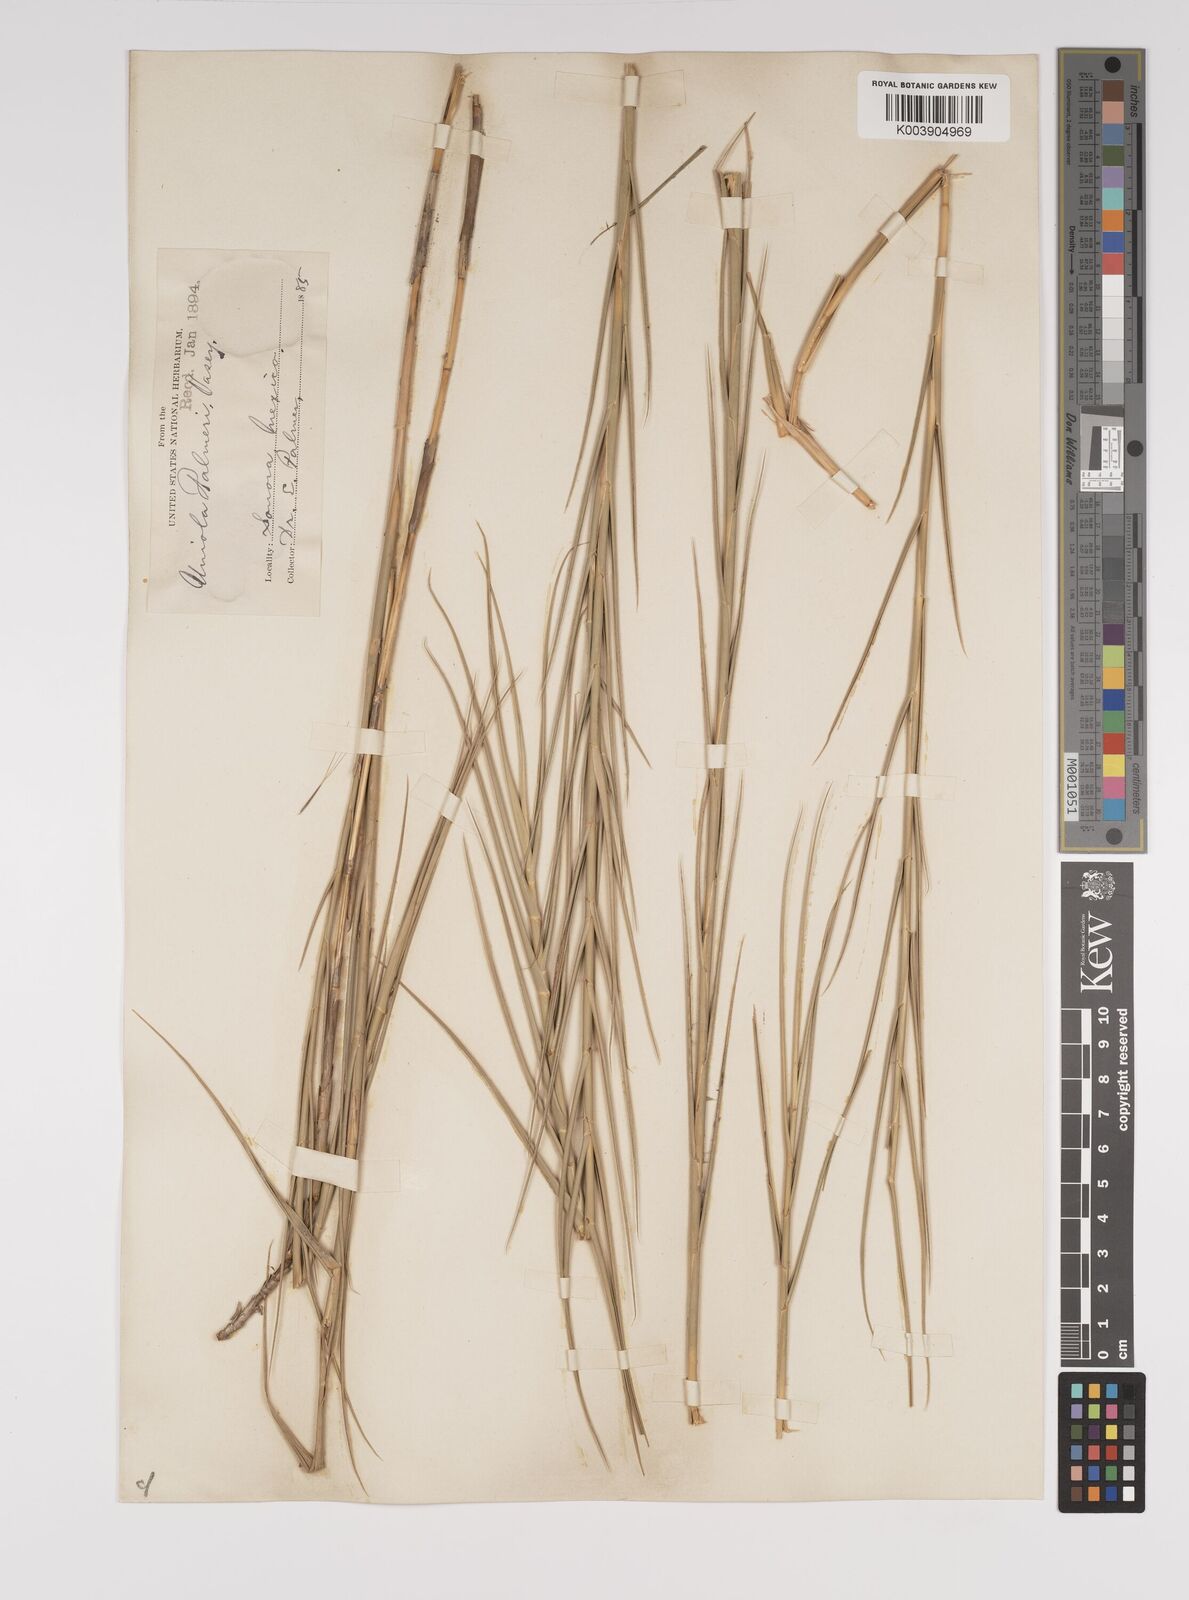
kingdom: Plantae
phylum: Tracheophyta
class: Liliopsida
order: Poales
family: Poaceae
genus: Distichlis
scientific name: Distichlis palmeri
